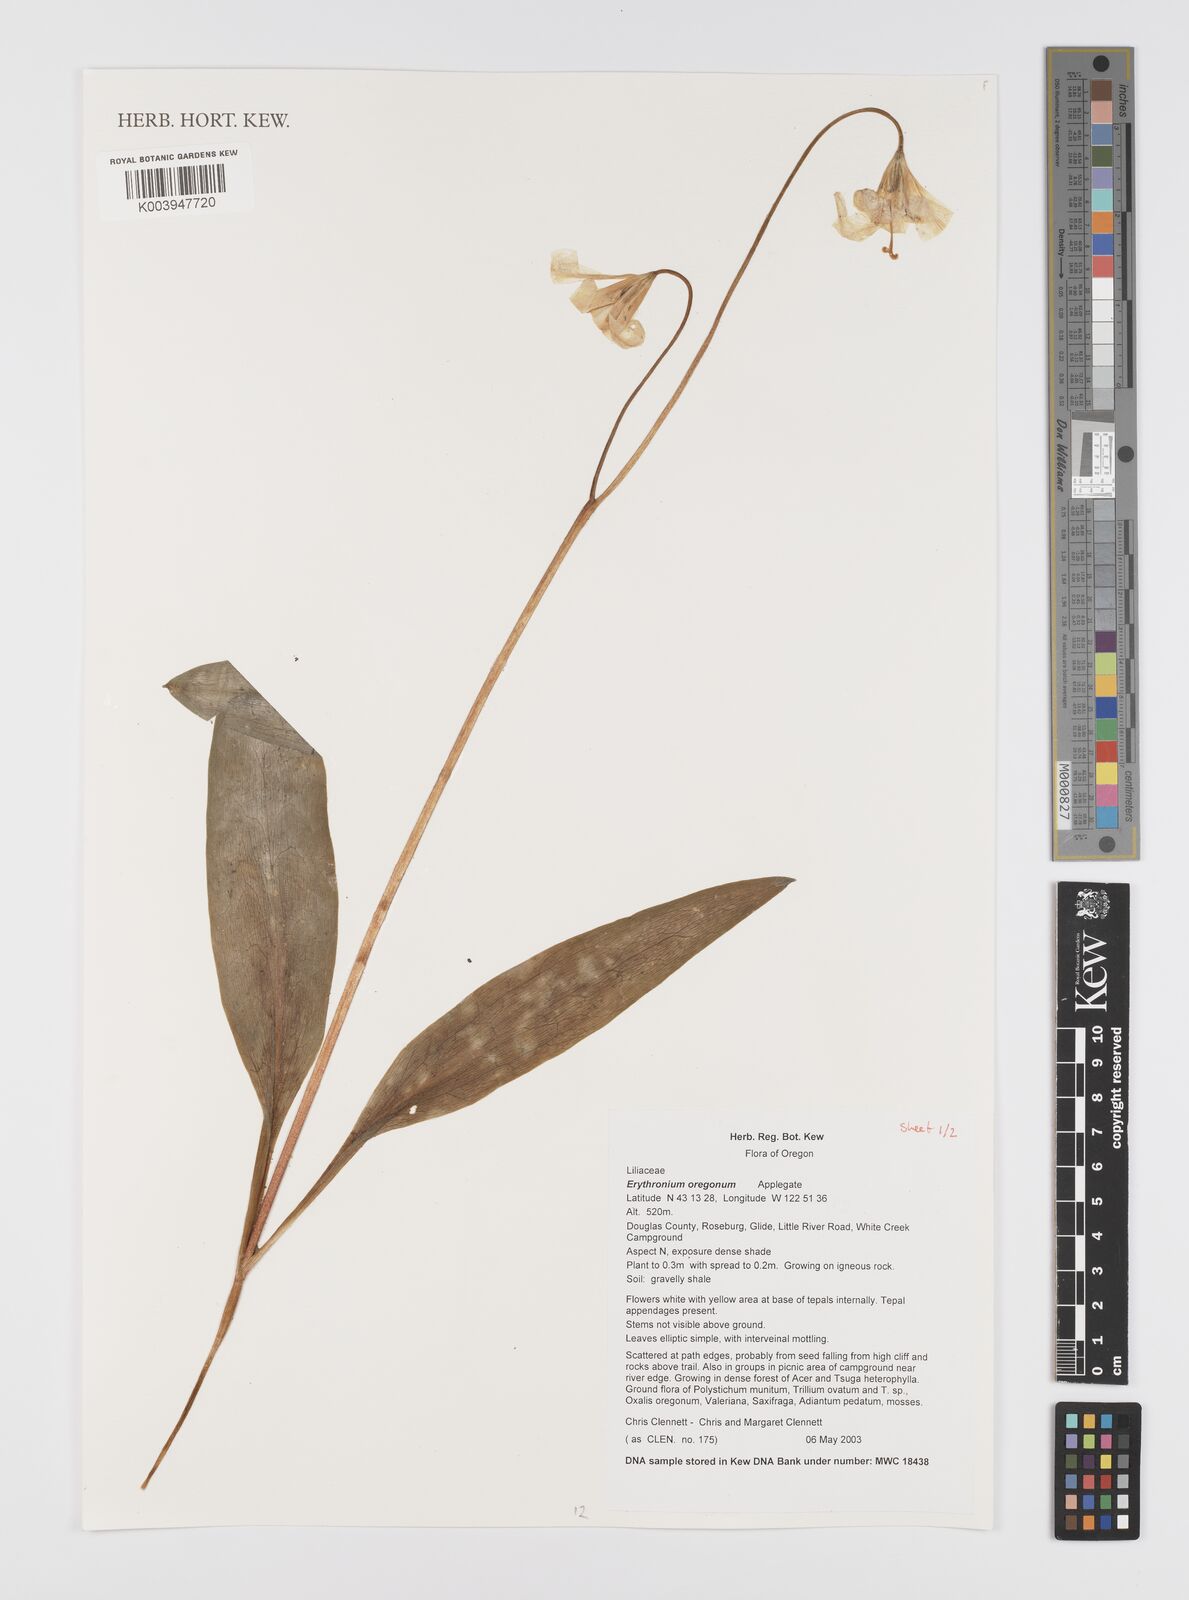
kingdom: Plantae
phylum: Tracheophyta
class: Liliopsida
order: Liliales
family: Liliaceae
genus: Erythronium
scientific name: Erythronium oregonum
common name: Giant adder's-tongue
